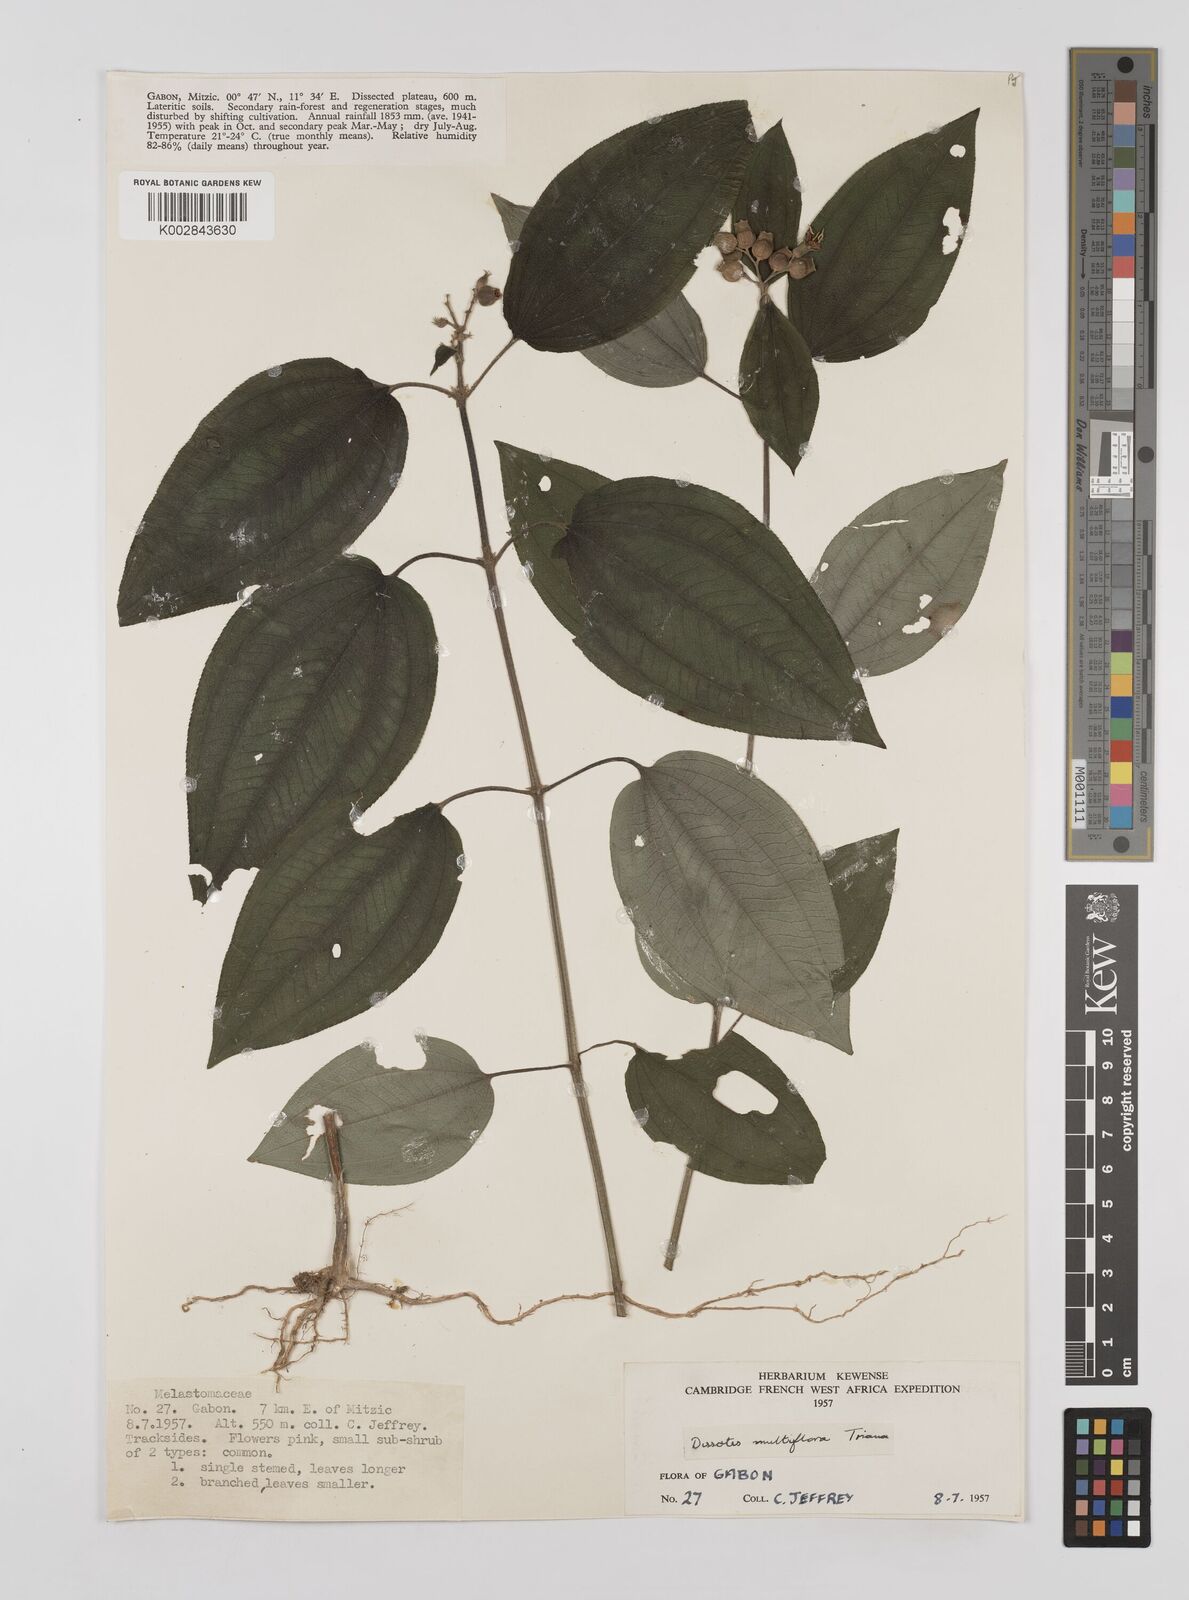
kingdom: Plantae
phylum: Tracheophyta
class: Magnoliopsida
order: Myrtales
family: Melastomataceae
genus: Dupineta
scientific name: Dupineta multiflora
